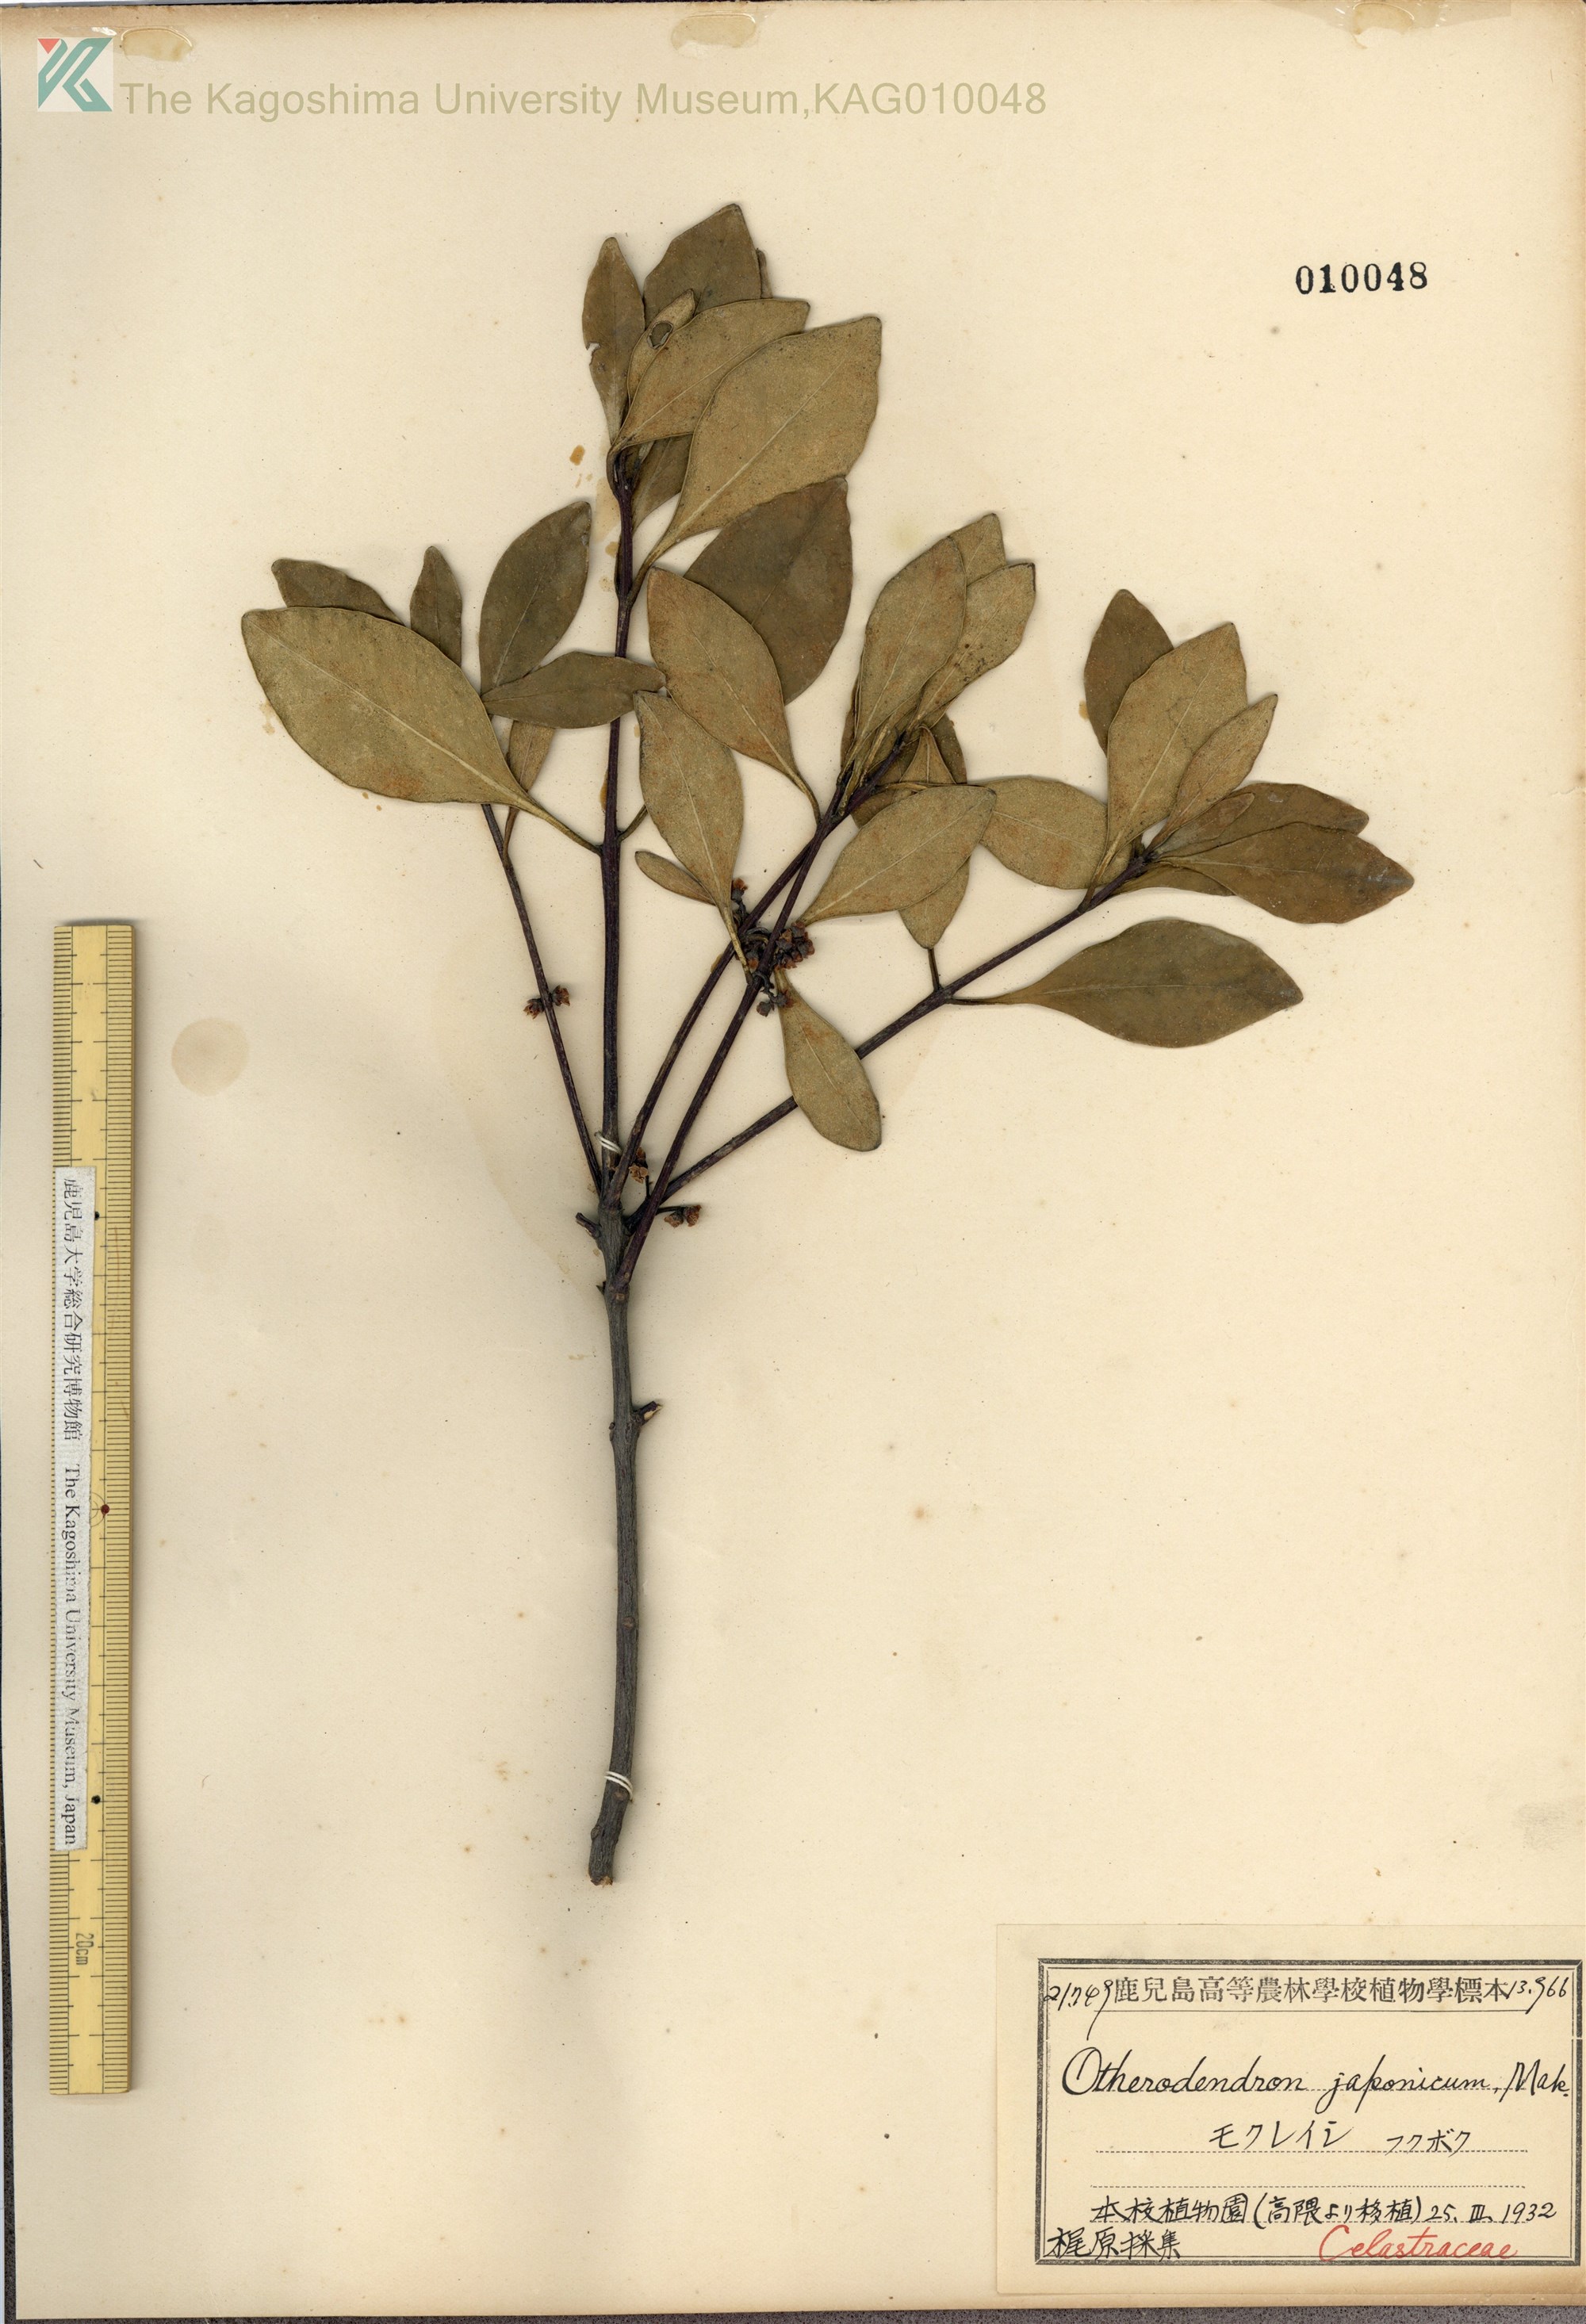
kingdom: Plantae
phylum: Tracheophyta
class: Magnoliopsida
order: Celastrales
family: Celastraceae
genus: Microtropis
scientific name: Microtropis japonica
